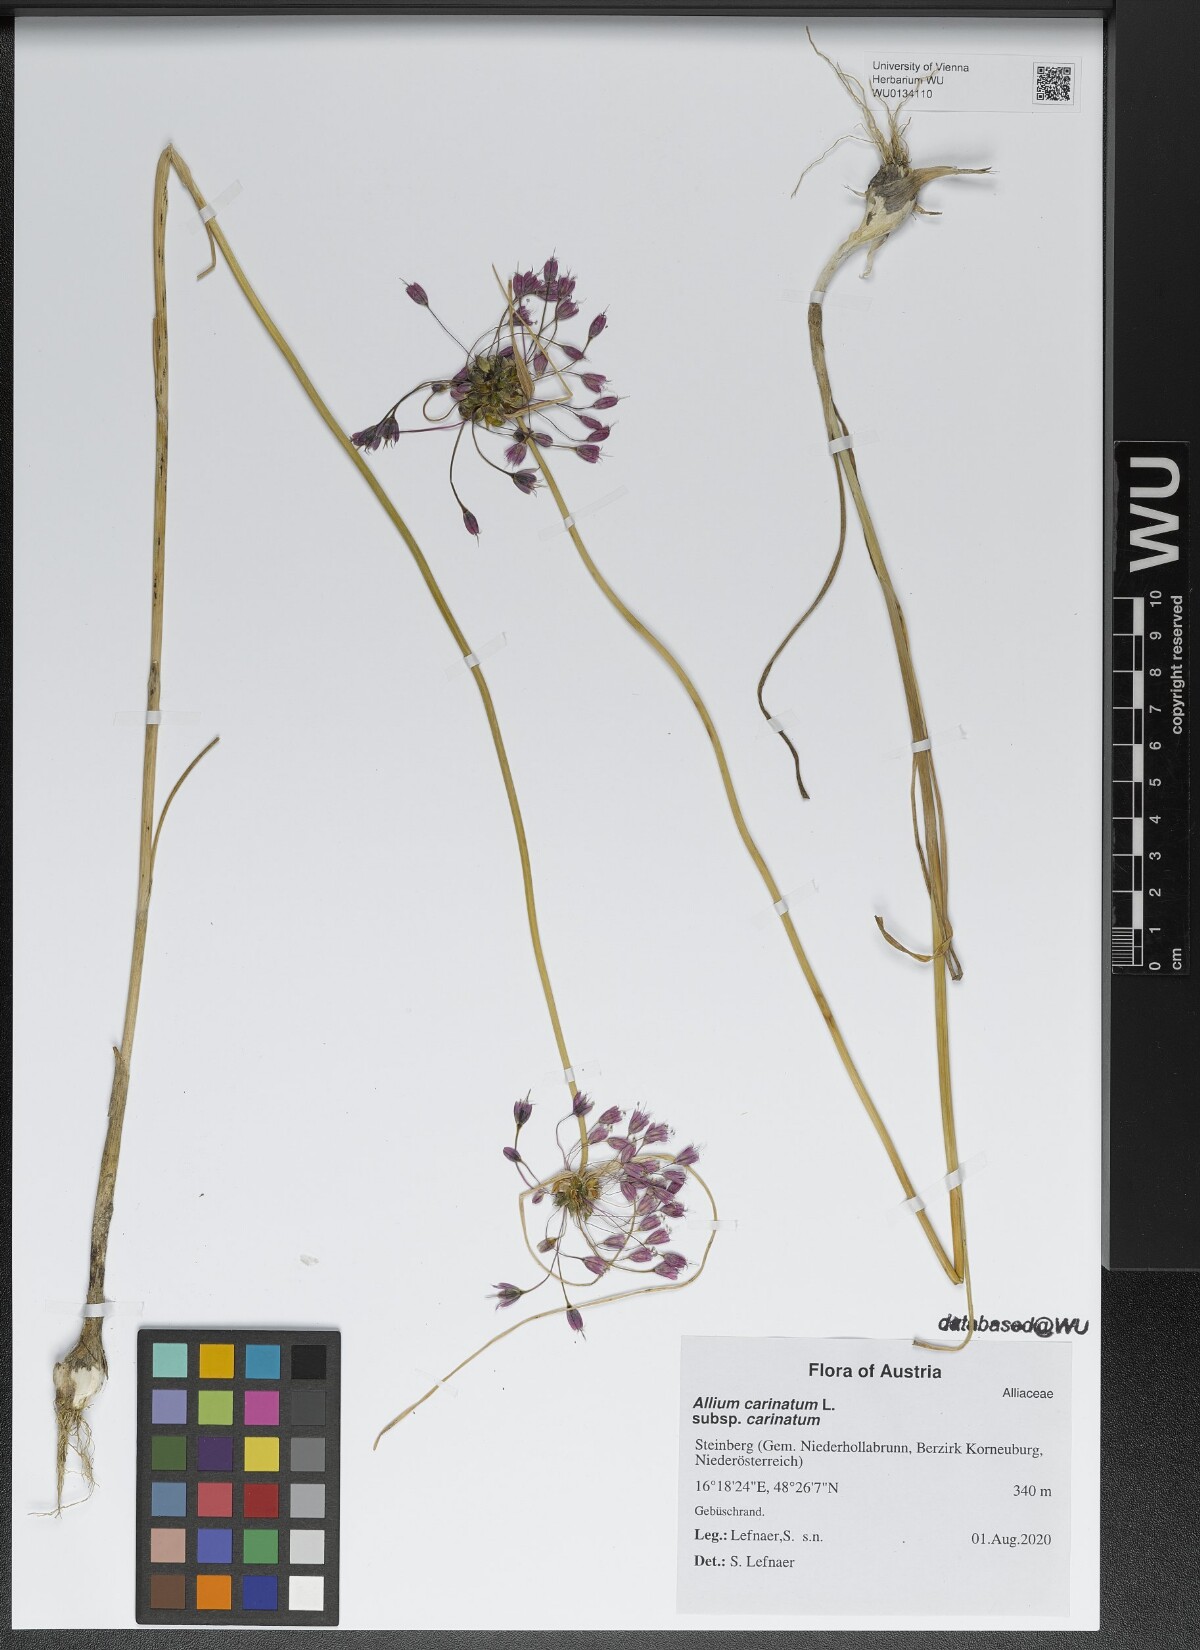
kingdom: Plantae
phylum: Tracheophyta
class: Liliopsida
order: Asparagales
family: Amaryllidaceae
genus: Allium
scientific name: Allium carinatum
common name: Keeled garlic
